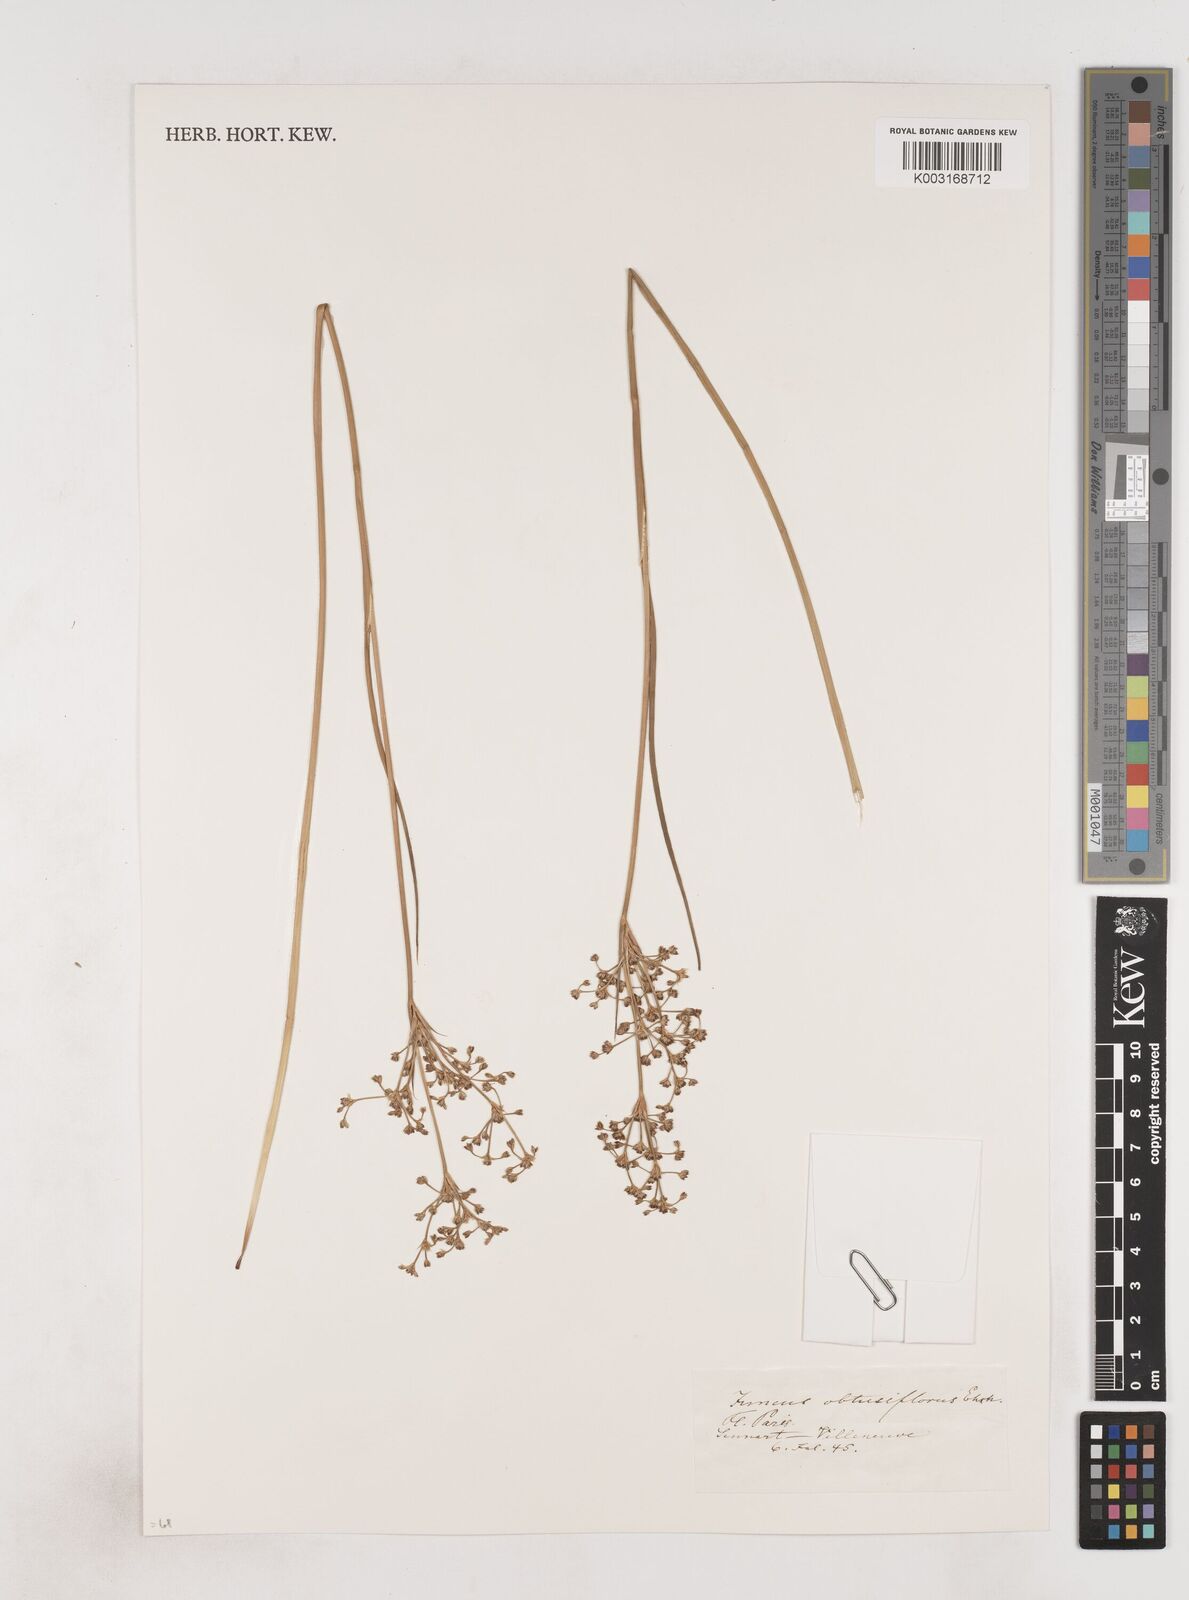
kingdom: Plantae
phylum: Tracheophyta
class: Liliopsida
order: Poales
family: Juncaceae
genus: Juncus
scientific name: Juncus subnodulosus
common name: Blunt-flowered rush
